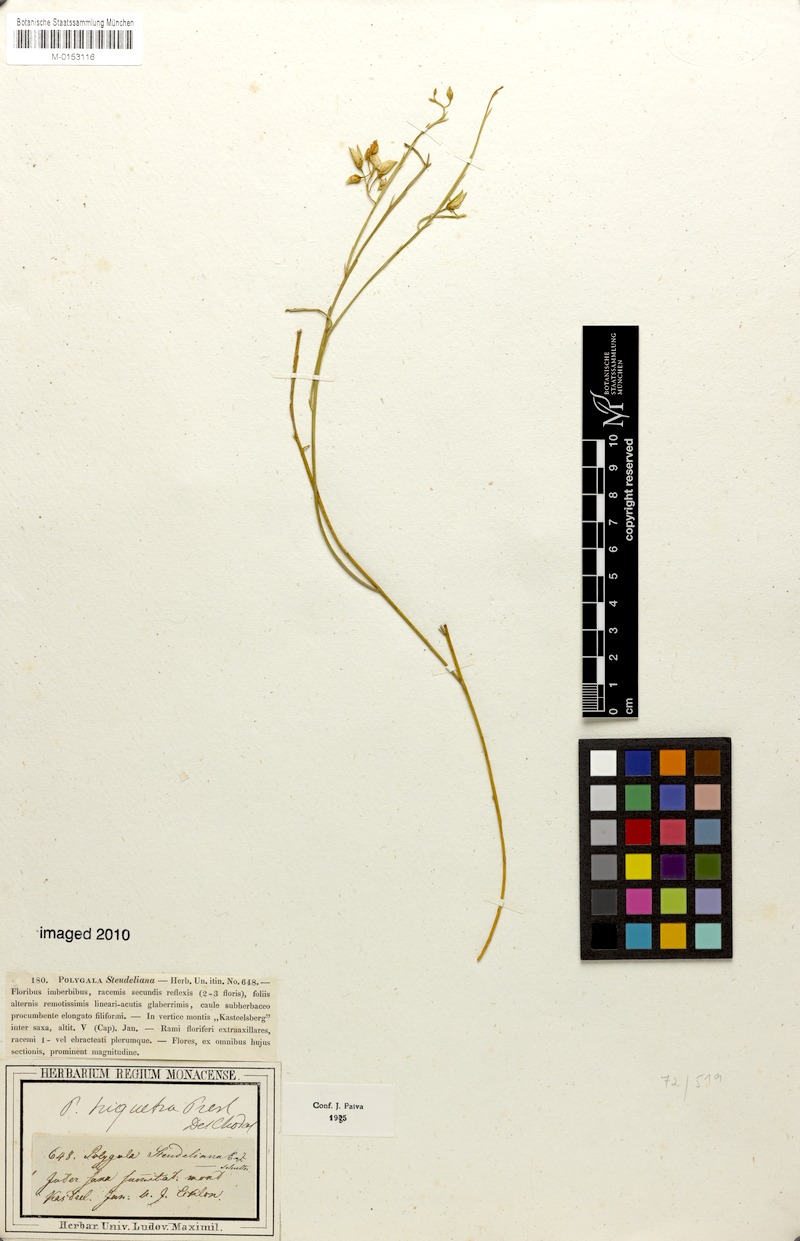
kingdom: Plantae
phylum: Tracheophyta
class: Magnoliopsida
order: Fabales
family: Polygalaceae
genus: Polygala
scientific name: Polygala triquetra
